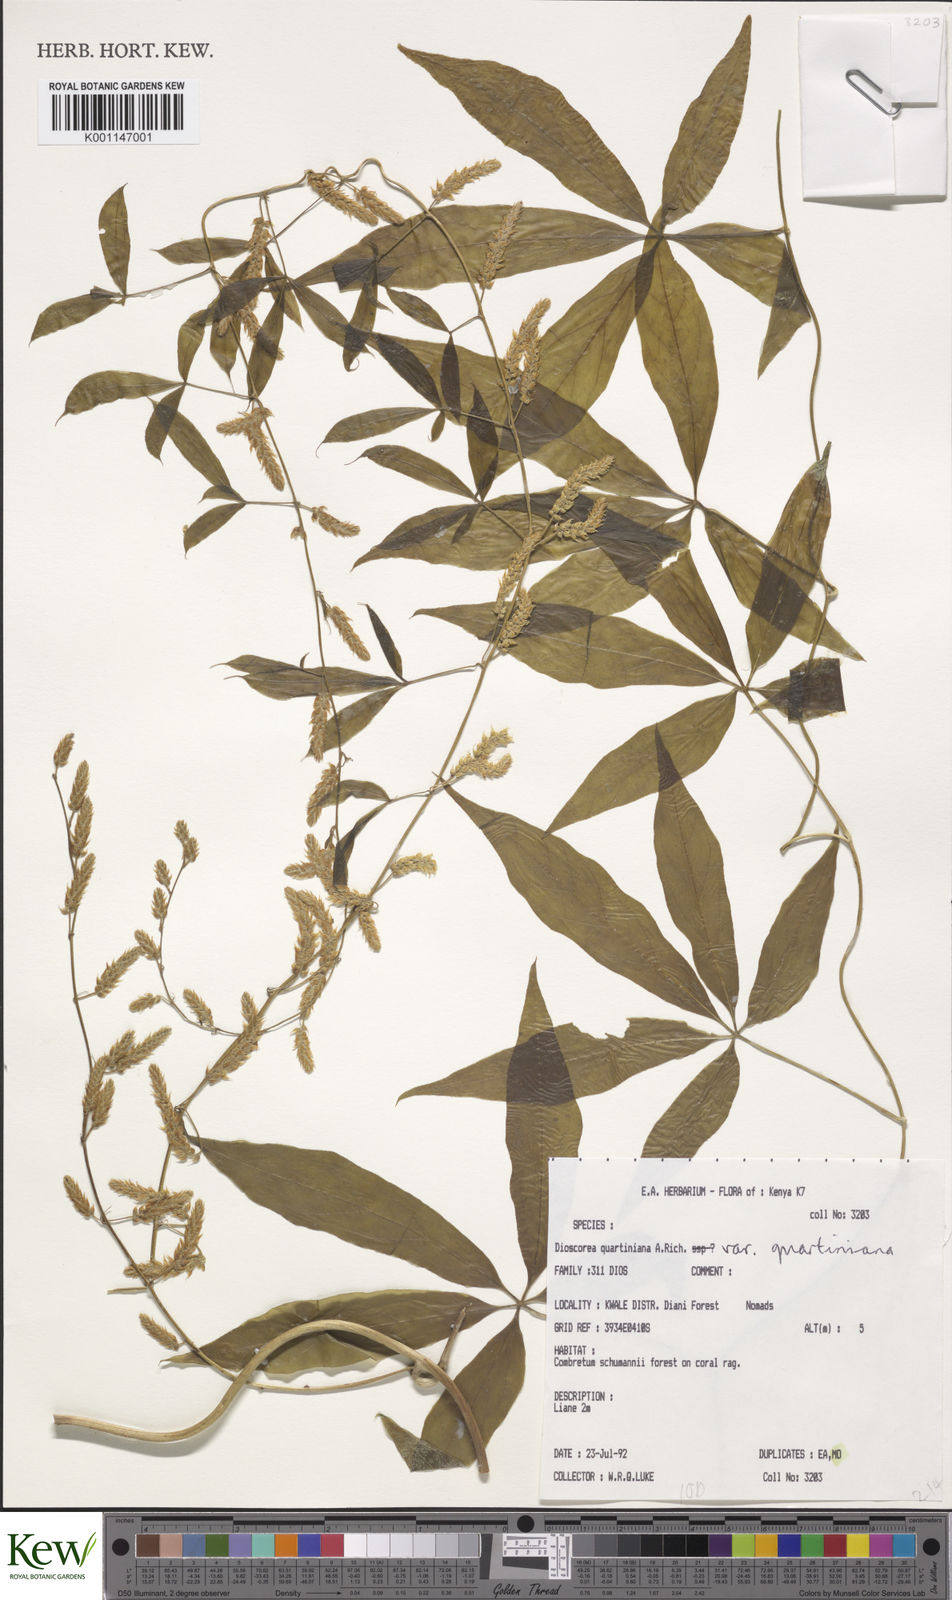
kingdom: Plantae
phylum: Tracheophyta
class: Liliopsida
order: Dioscoreales
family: Dioscoreaceae
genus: Dioscorea
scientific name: Dioscorea quartiniana
